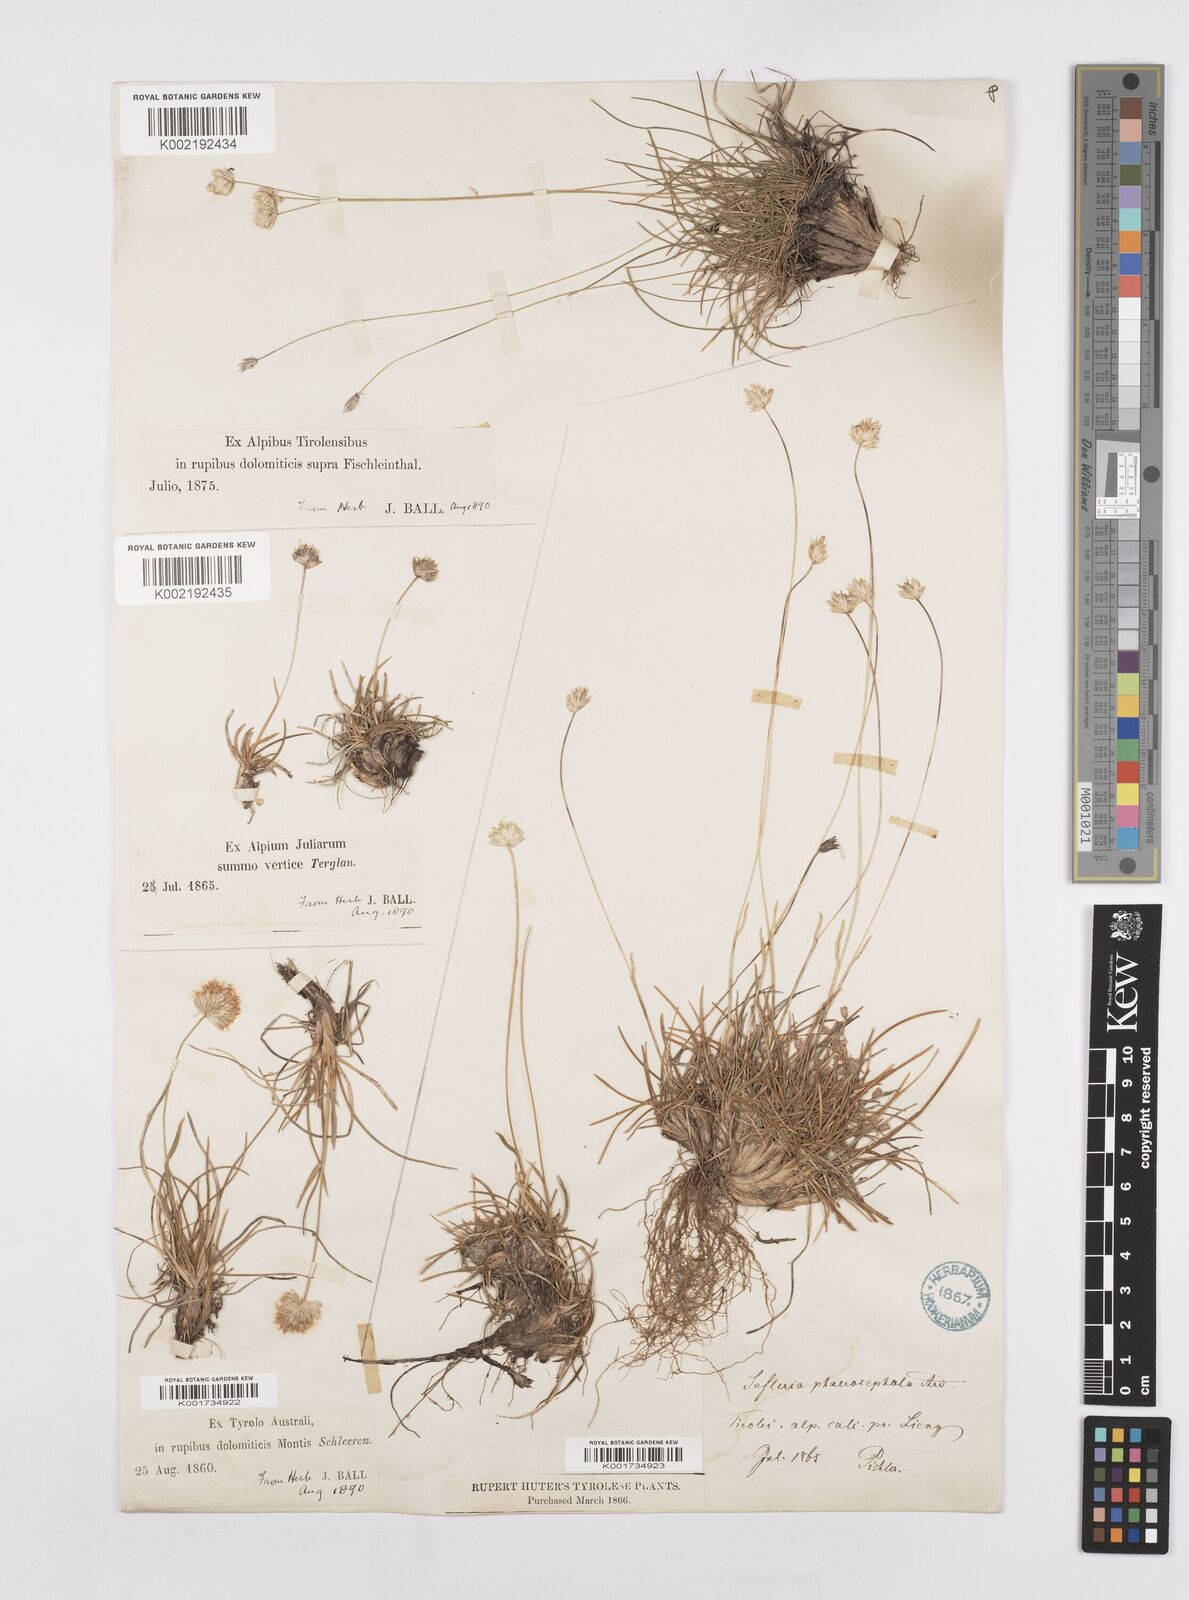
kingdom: Plantae
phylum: Tracheophyta
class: Liliopsida
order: Poales
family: Poaceae
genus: Sesleriella
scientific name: Sesleriella sphaerocephala
